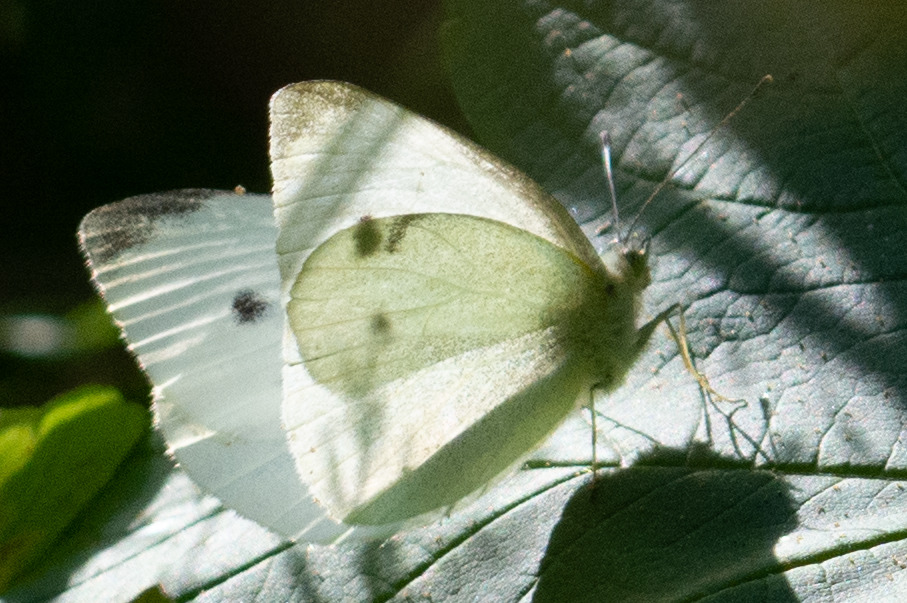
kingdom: Animalia
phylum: Arthropoda
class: Insecta
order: Lepidoptera
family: Pieridae
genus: Pieris
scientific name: Pieris rapae
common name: Lille kålsommerfugl
